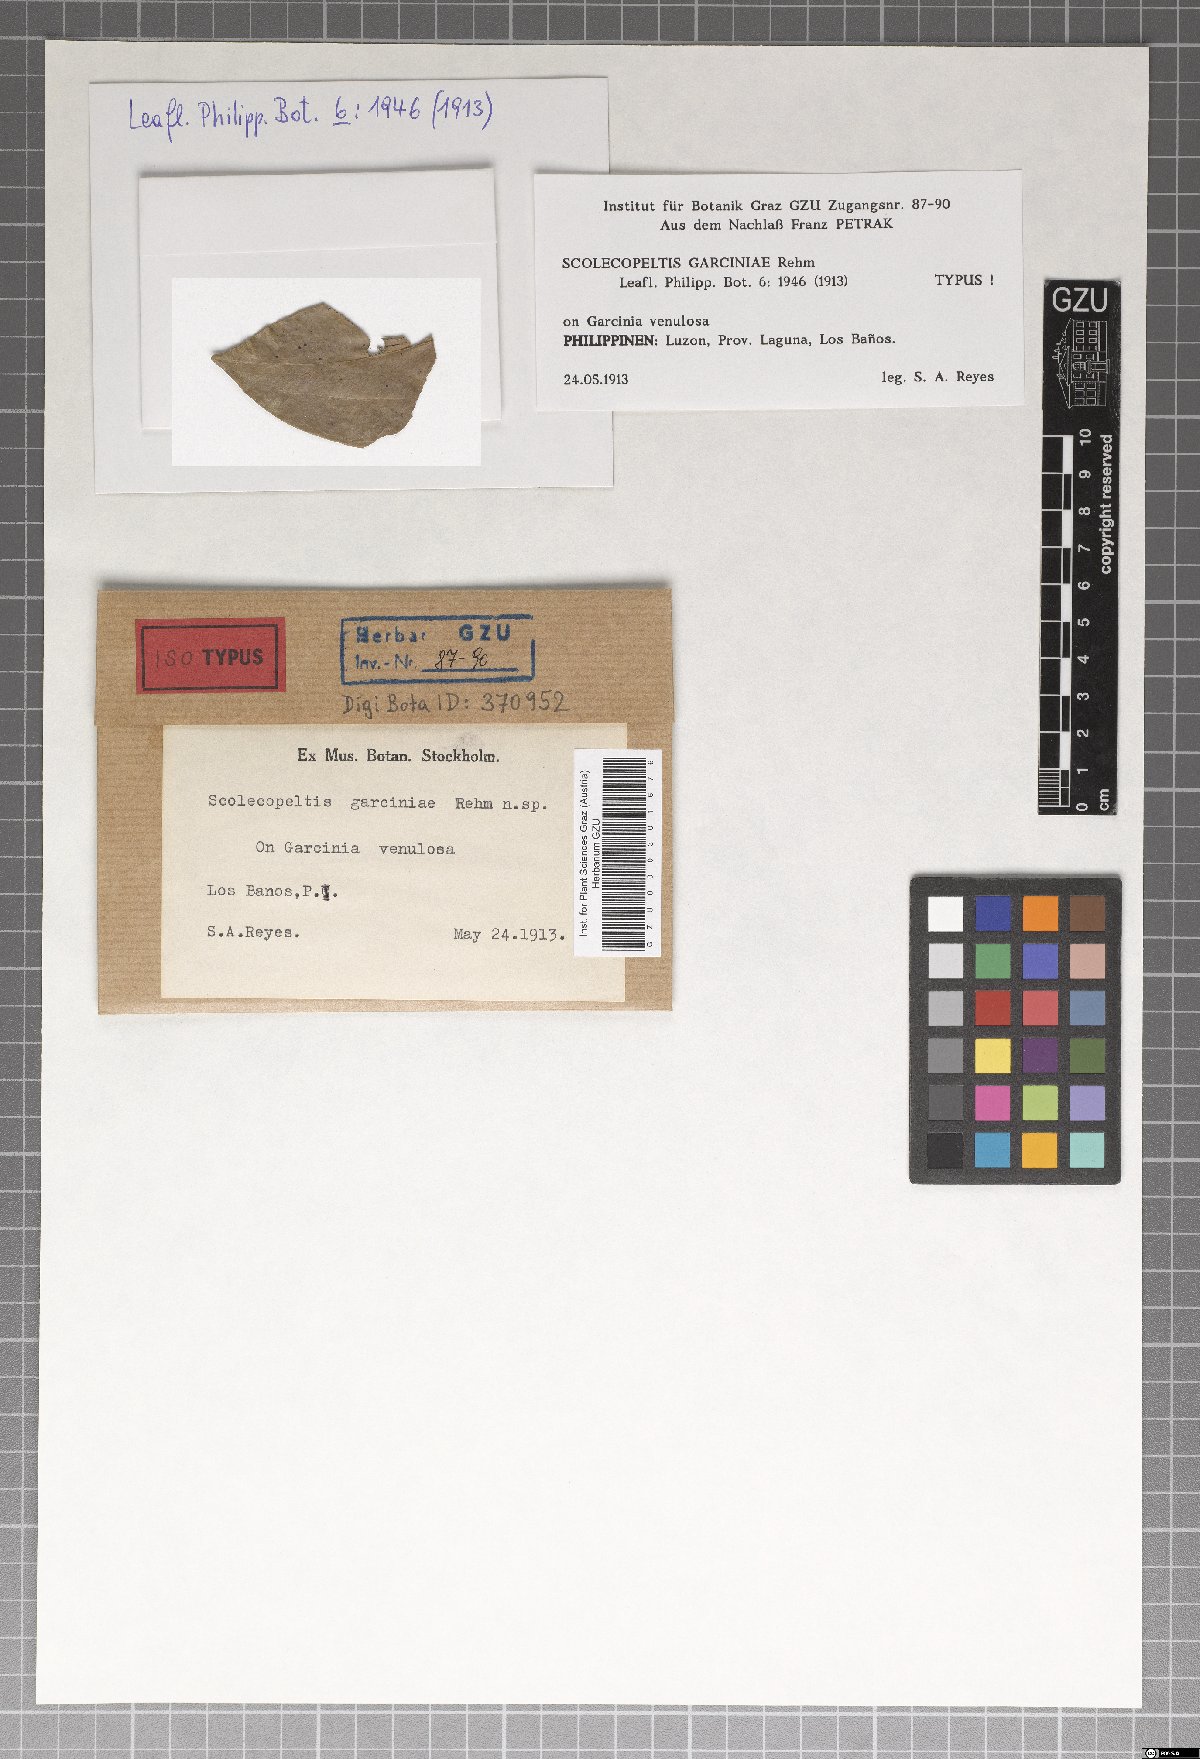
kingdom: Fungi
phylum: Ascomycota
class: Dothideomycetes
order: Microthyriales
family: Micropeltidaceae
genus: Scolecopeltis
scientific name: Scolecopeltis garciniae
